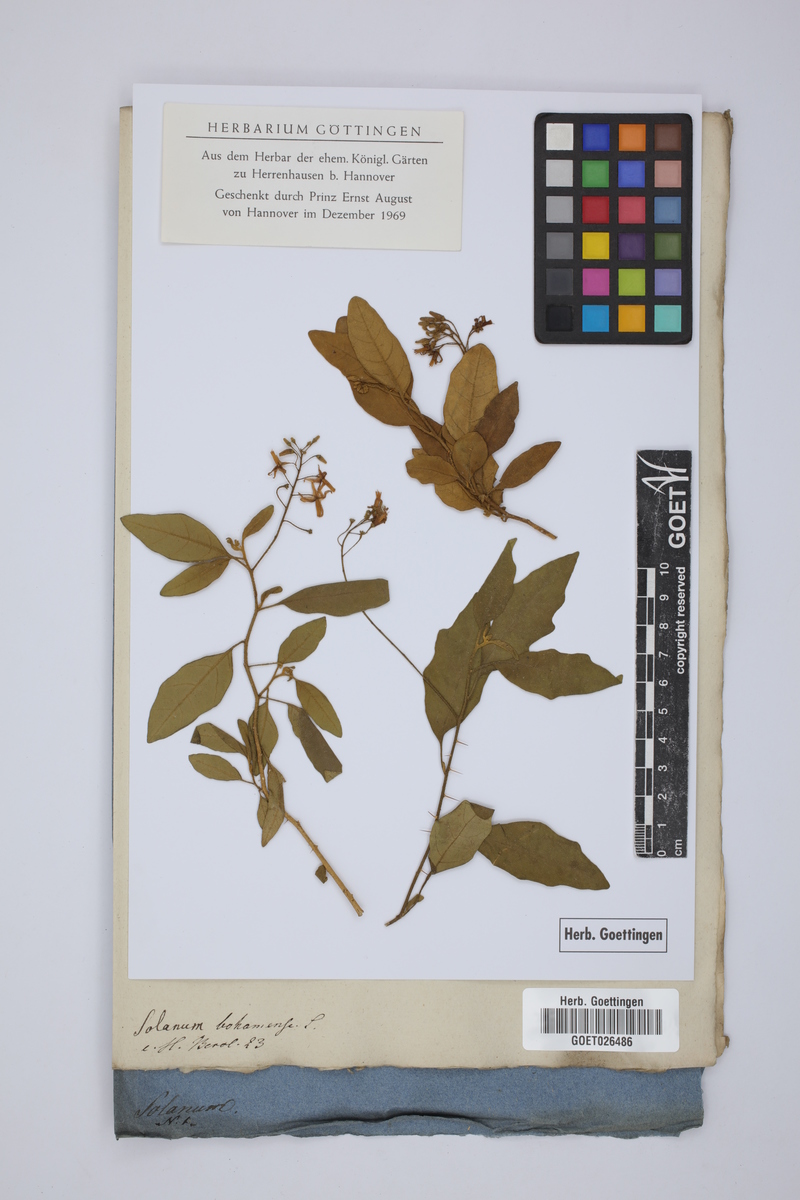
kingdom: Plantae
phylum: Tracheophyta
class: Magnoliopsida
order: Solanales
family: Solanaceae
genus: Solanum
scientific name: Solanum bahamense
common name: Canker-berry
